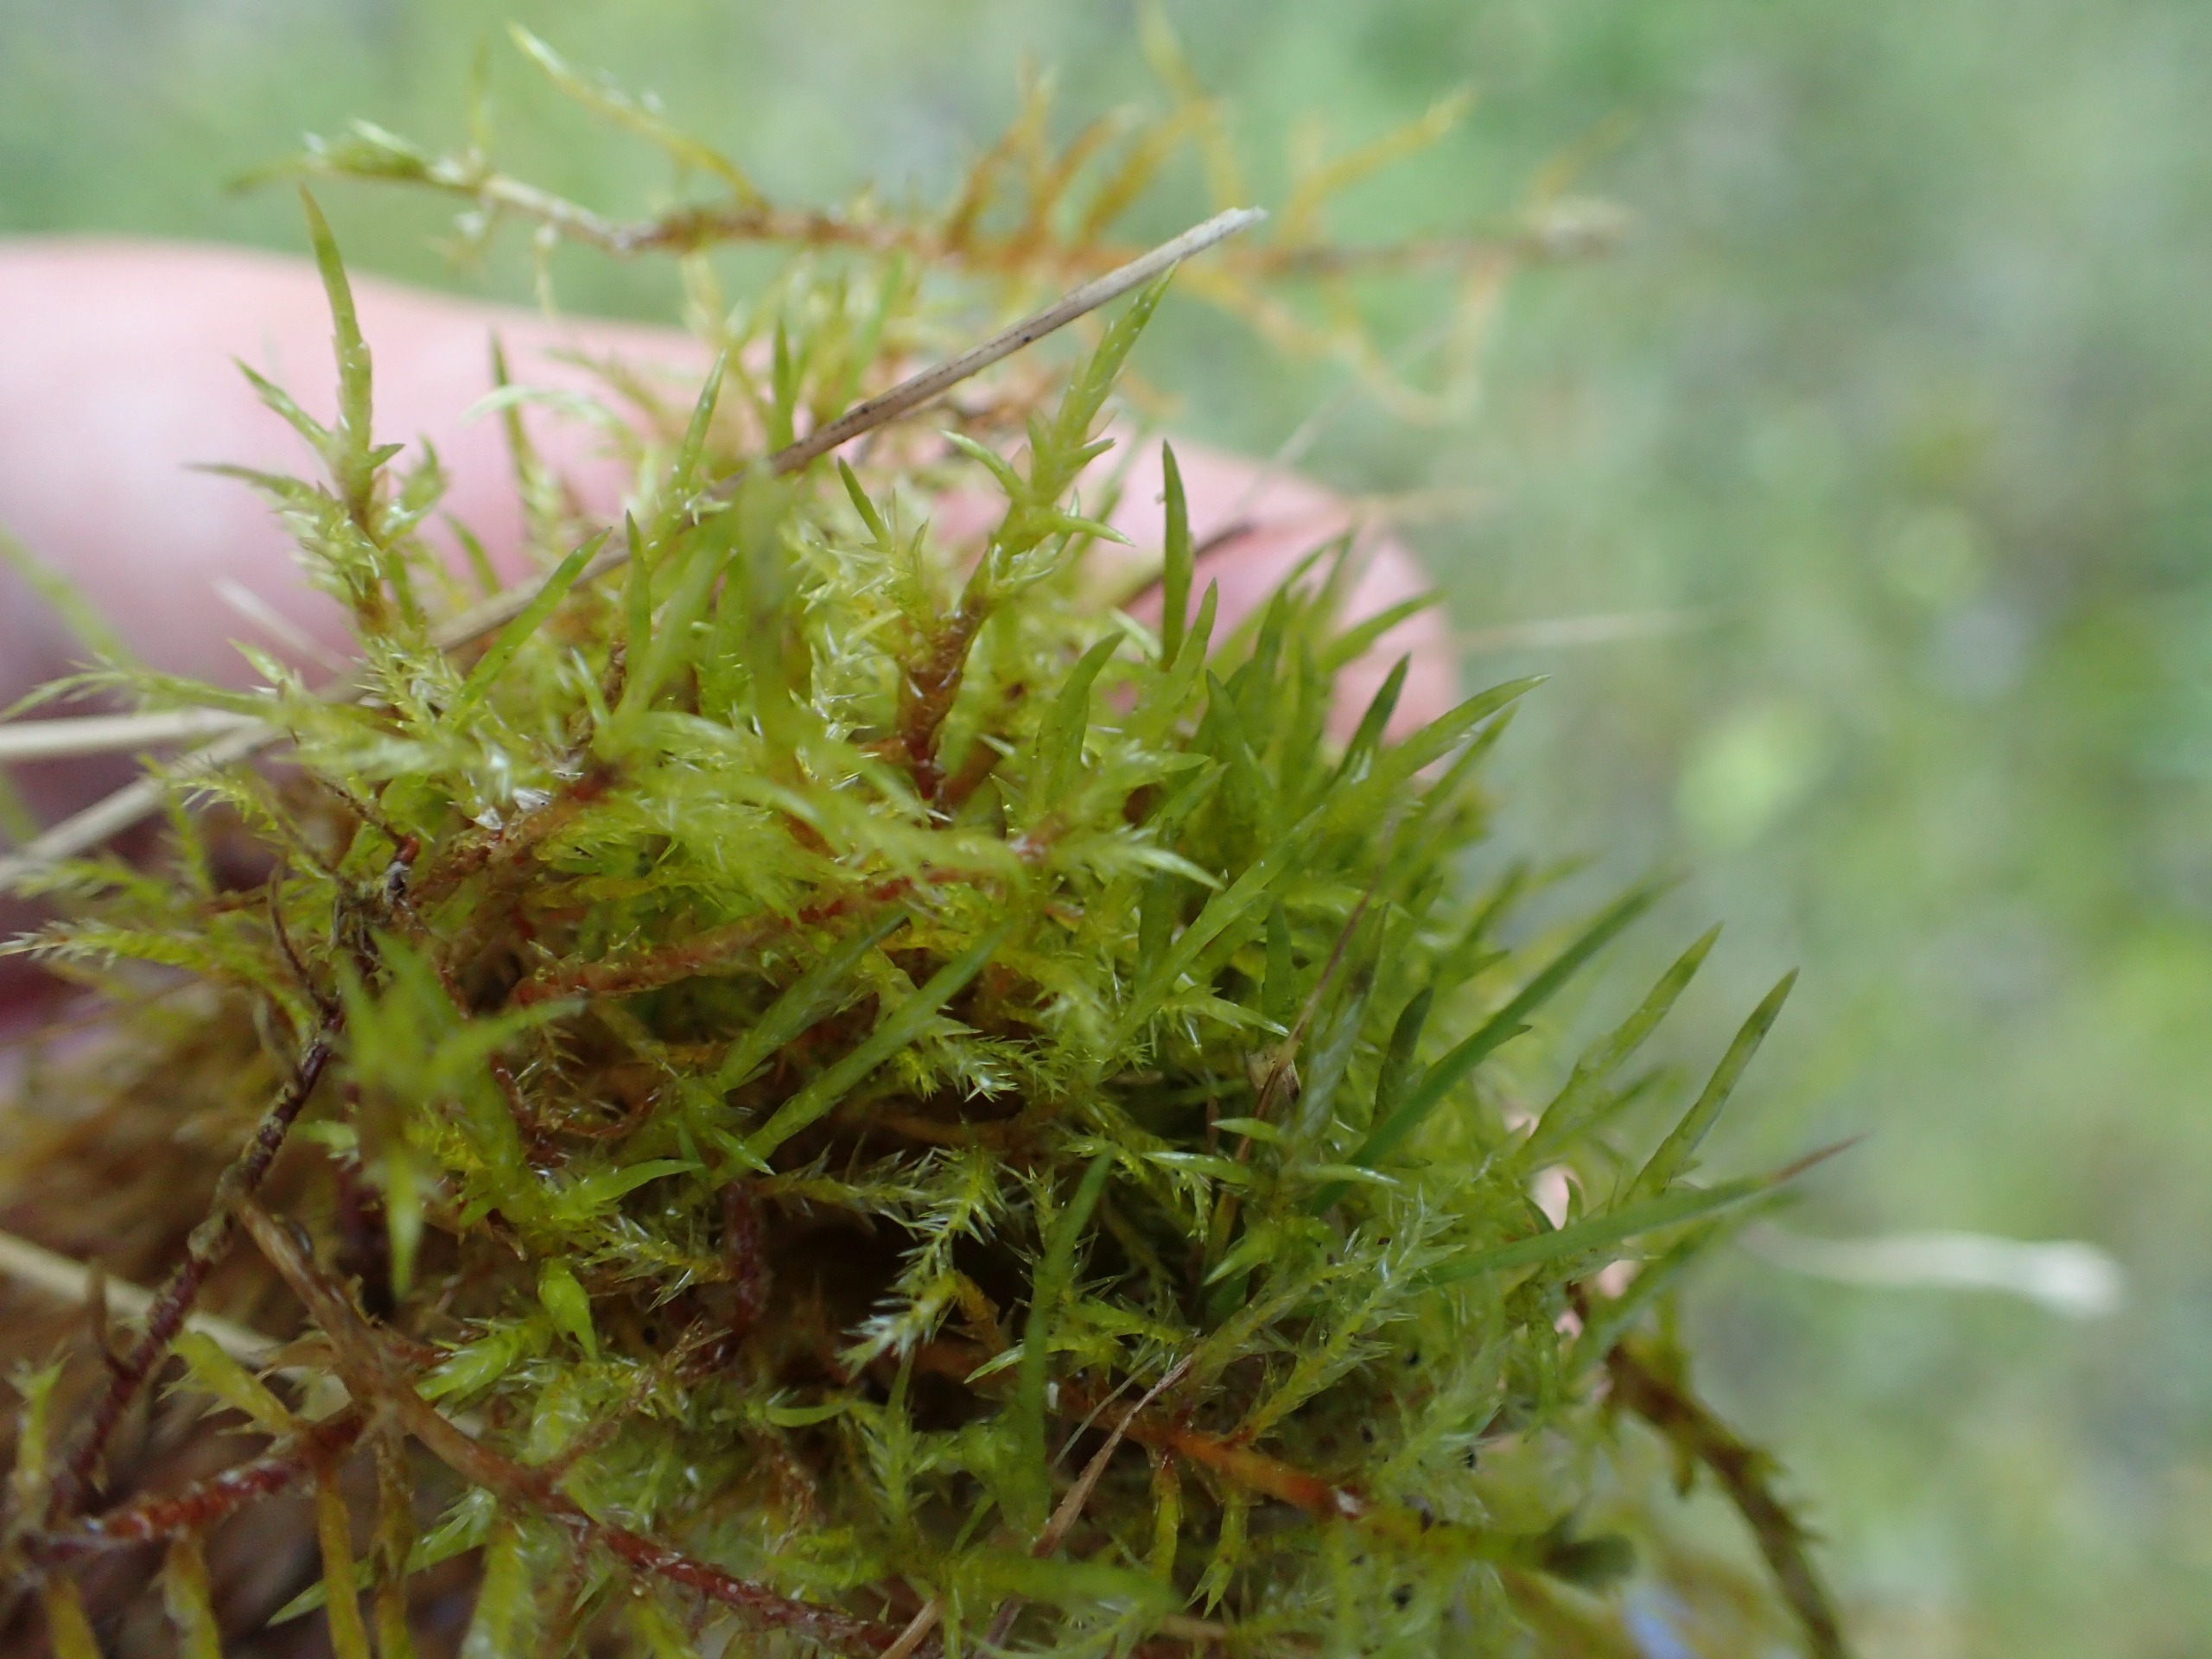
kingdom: Plantae
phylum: Bryophyta
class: Bryopsida
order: Hypnales
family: Pylaisiaceae
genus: Calliergonella
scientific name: Calliergonella cuspidata
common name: Spids spydmos
